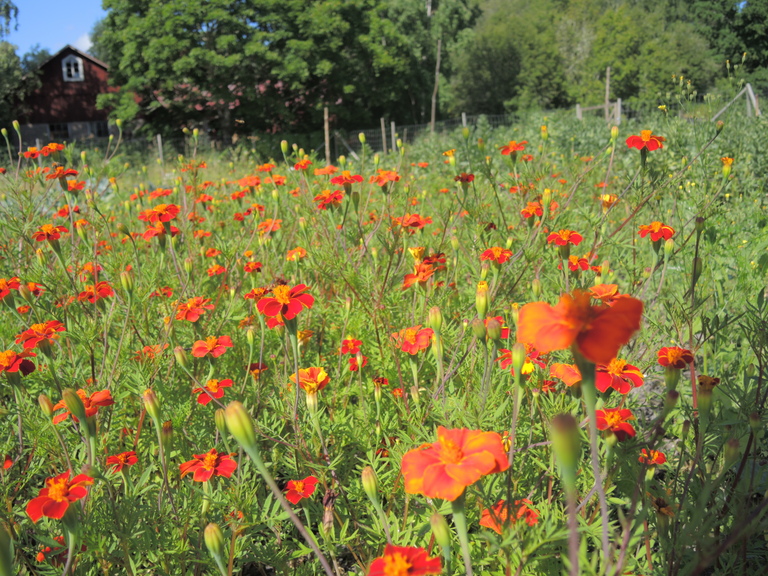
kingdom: Plantae
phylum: Tracheophyta
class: Magnoliopsida
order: Asterales
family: Asteraceae
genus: Tagetes
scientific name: Tagetes erecta
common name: African marigold
